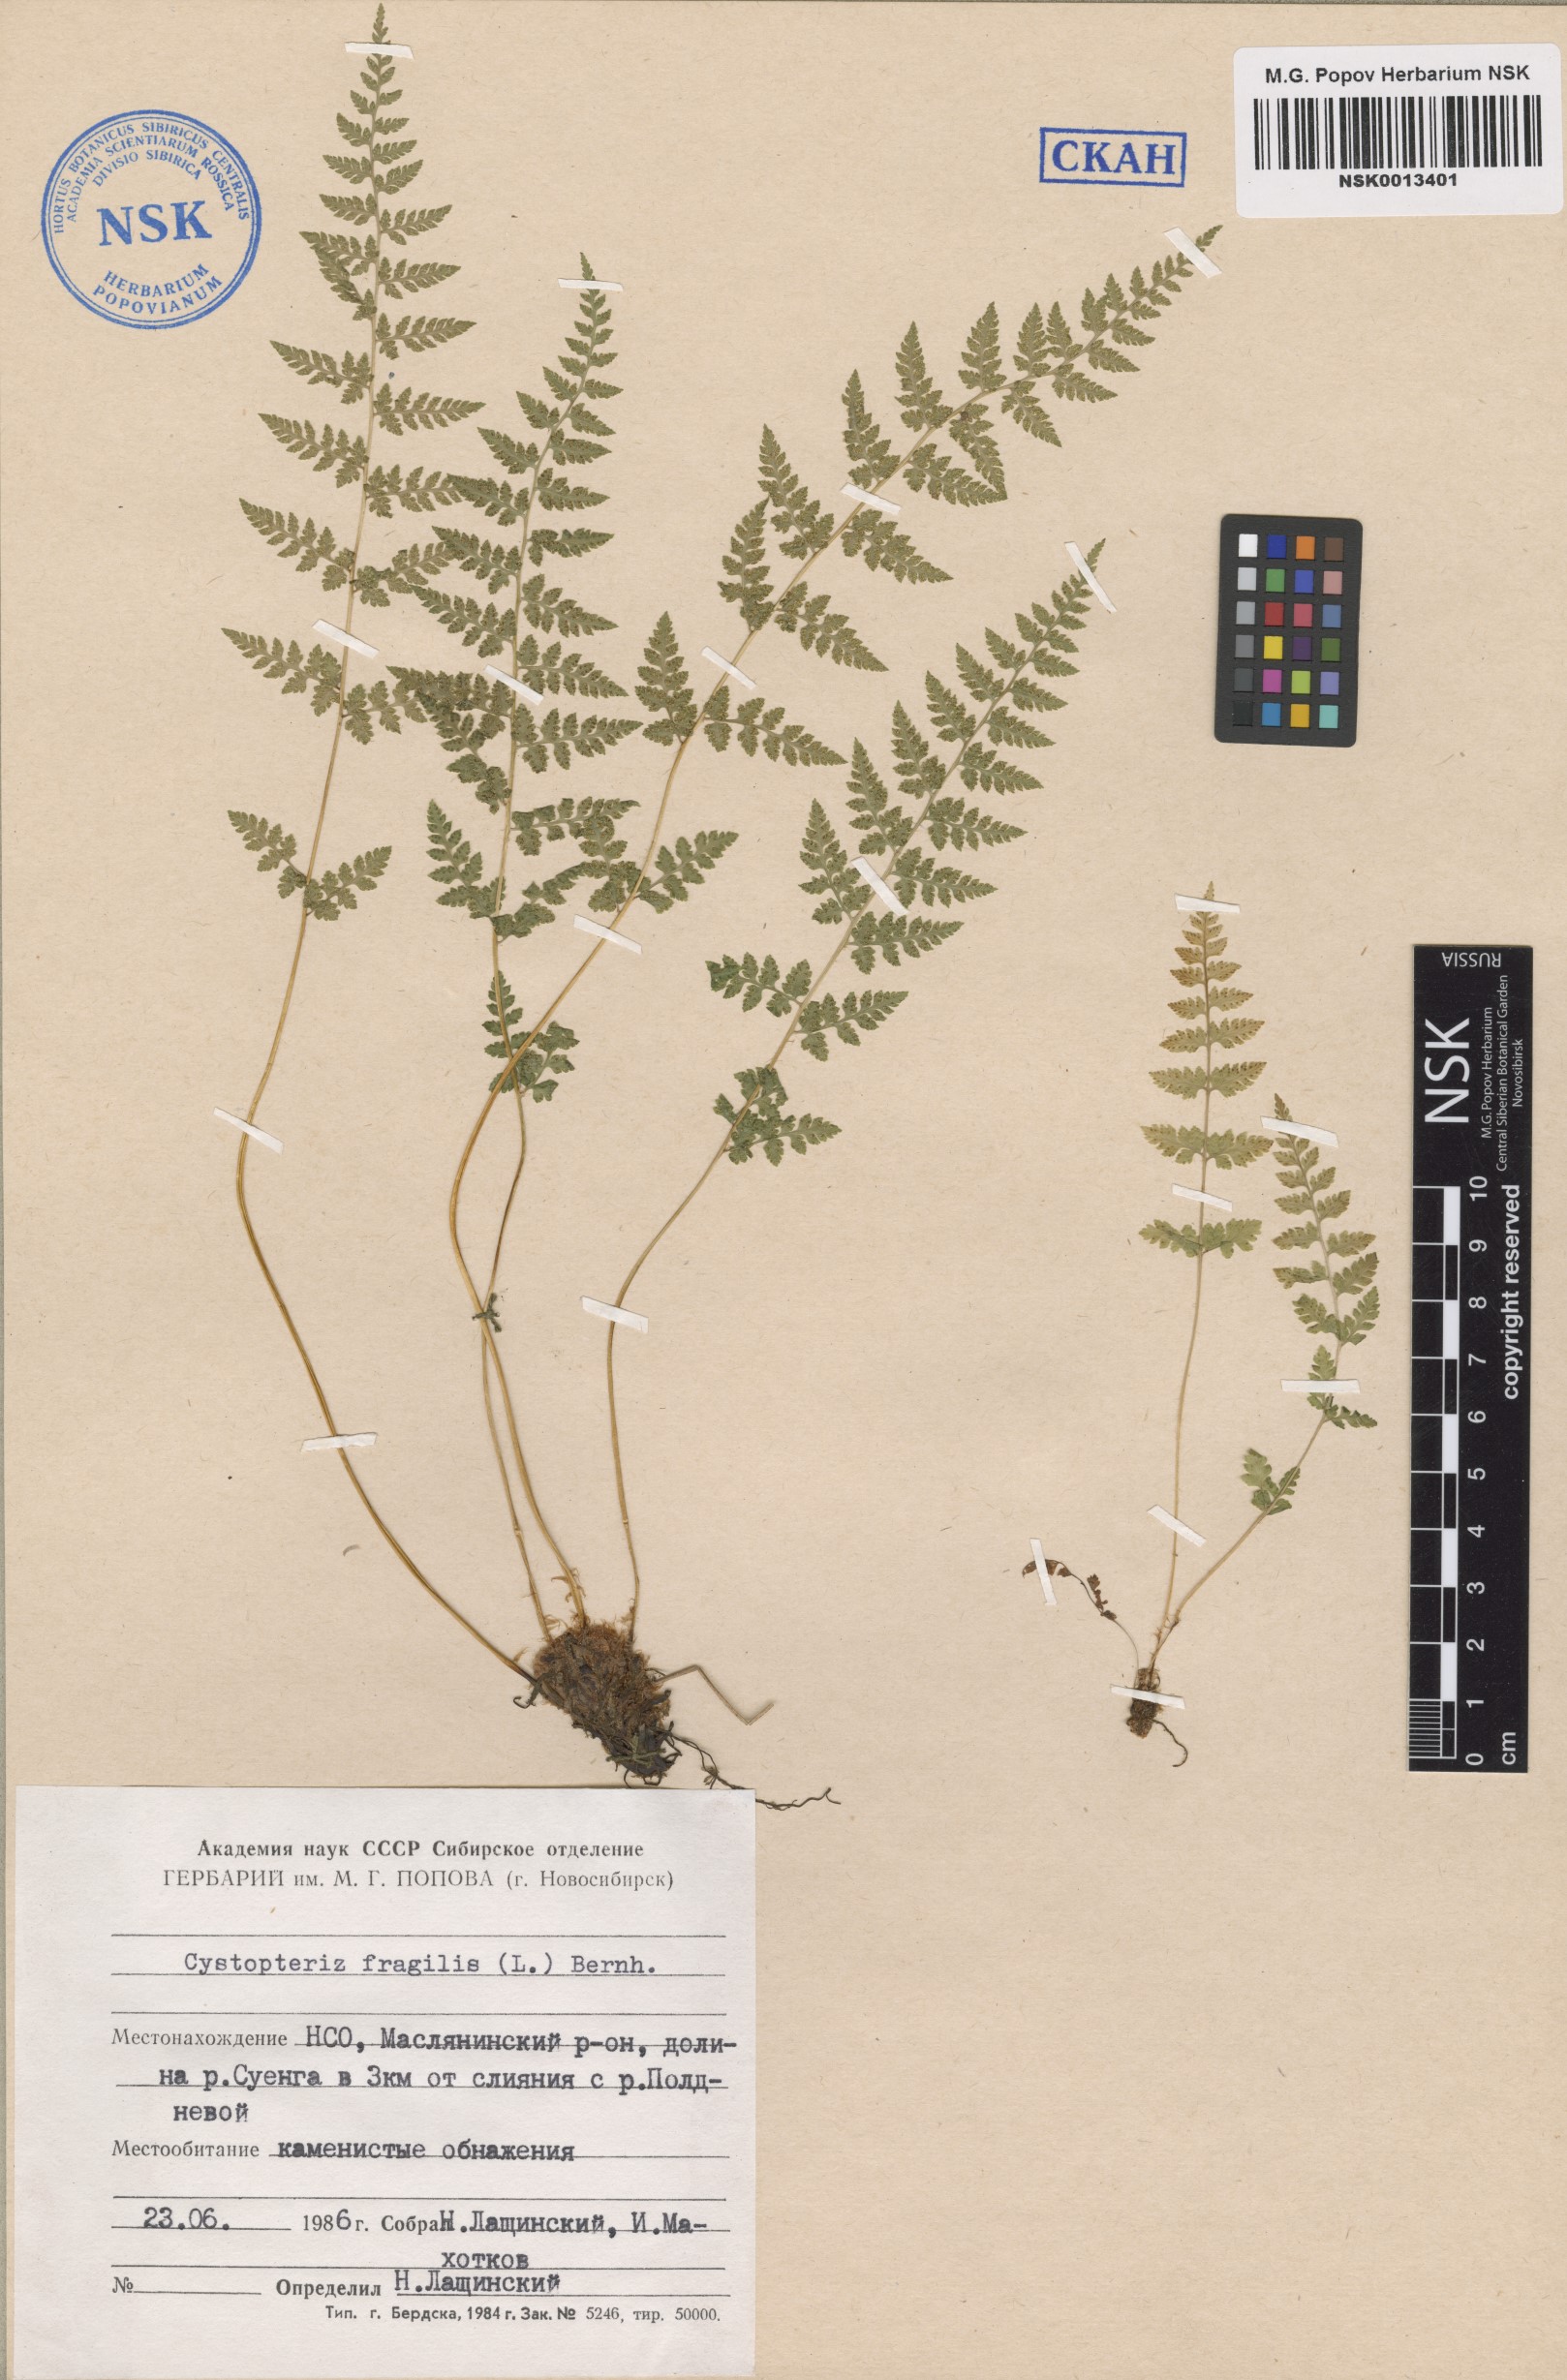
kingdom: Plantae
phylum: Tracheophyta
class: Polypodiopsida
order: Polypodiales
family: Cystopteridaceae
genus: Cystopteris
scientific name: Cystopteris fragilis
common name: Brittle bladder fern
